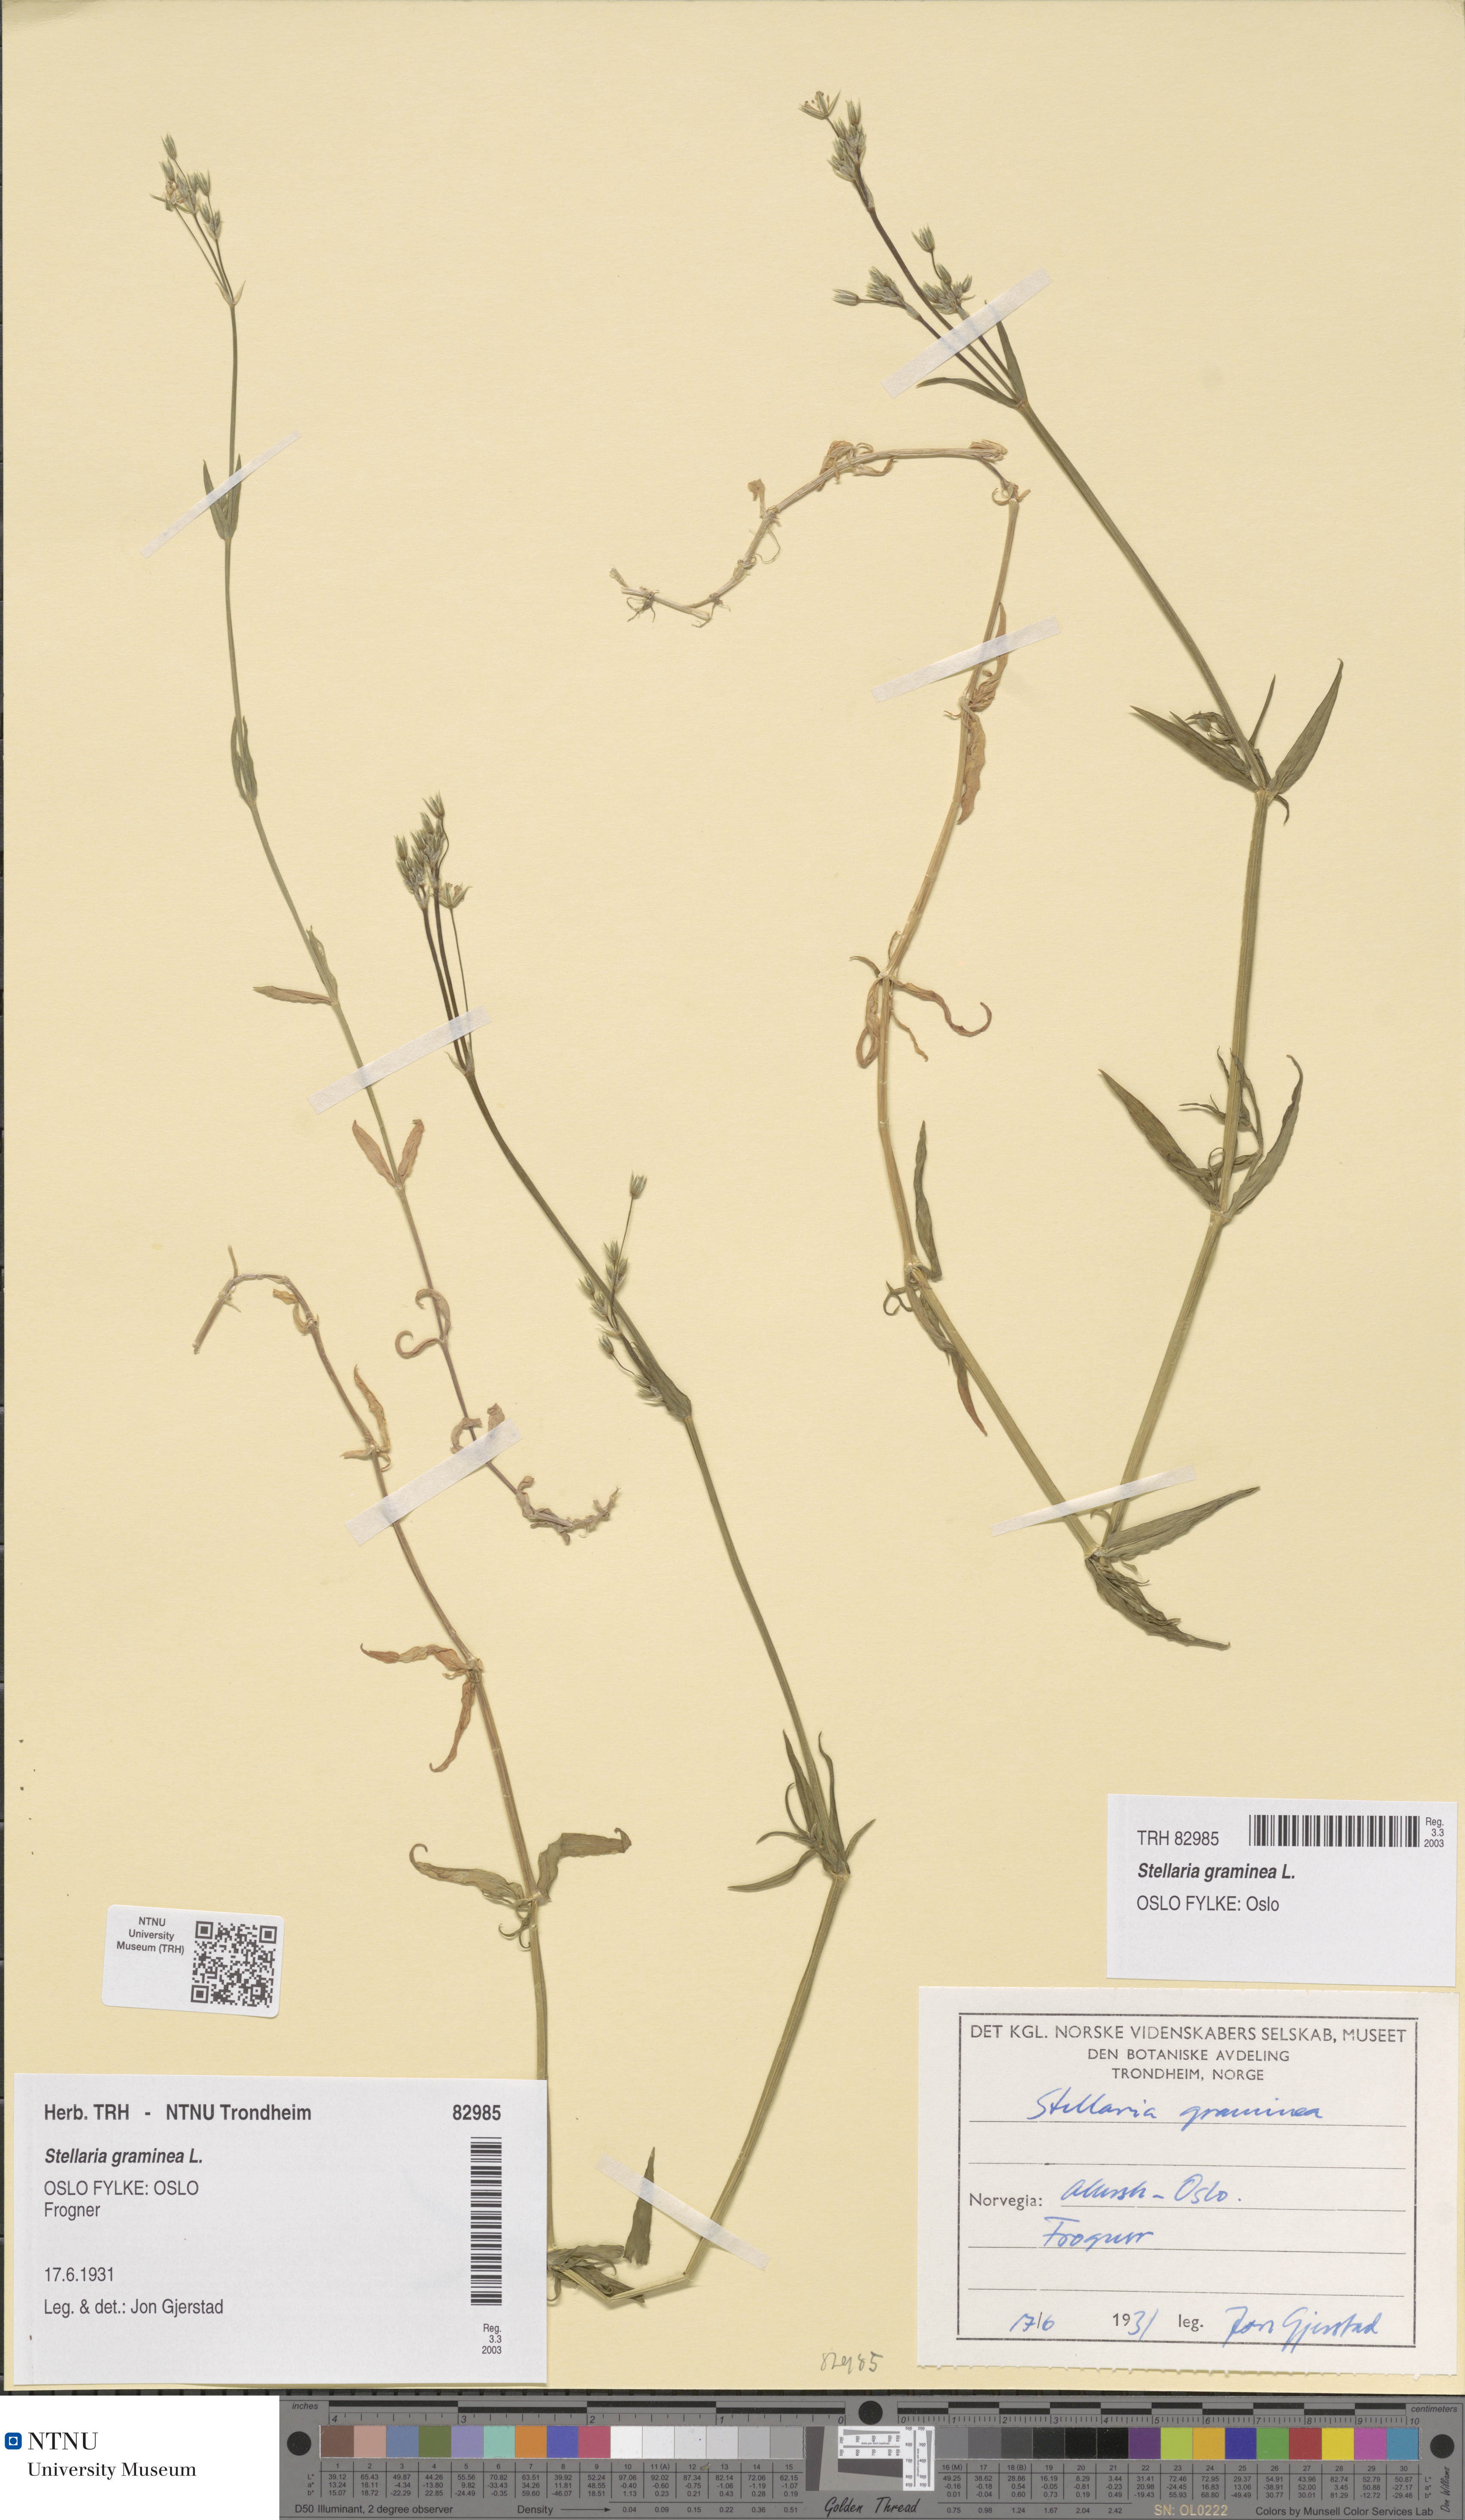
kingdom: Plantae
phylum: Tracheophyta
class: Magnoliopsida
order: Caryophyllales
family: Caryophyllaceae
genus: Stellaria
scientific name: Stellaria graminea
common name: Grass-like starwort
